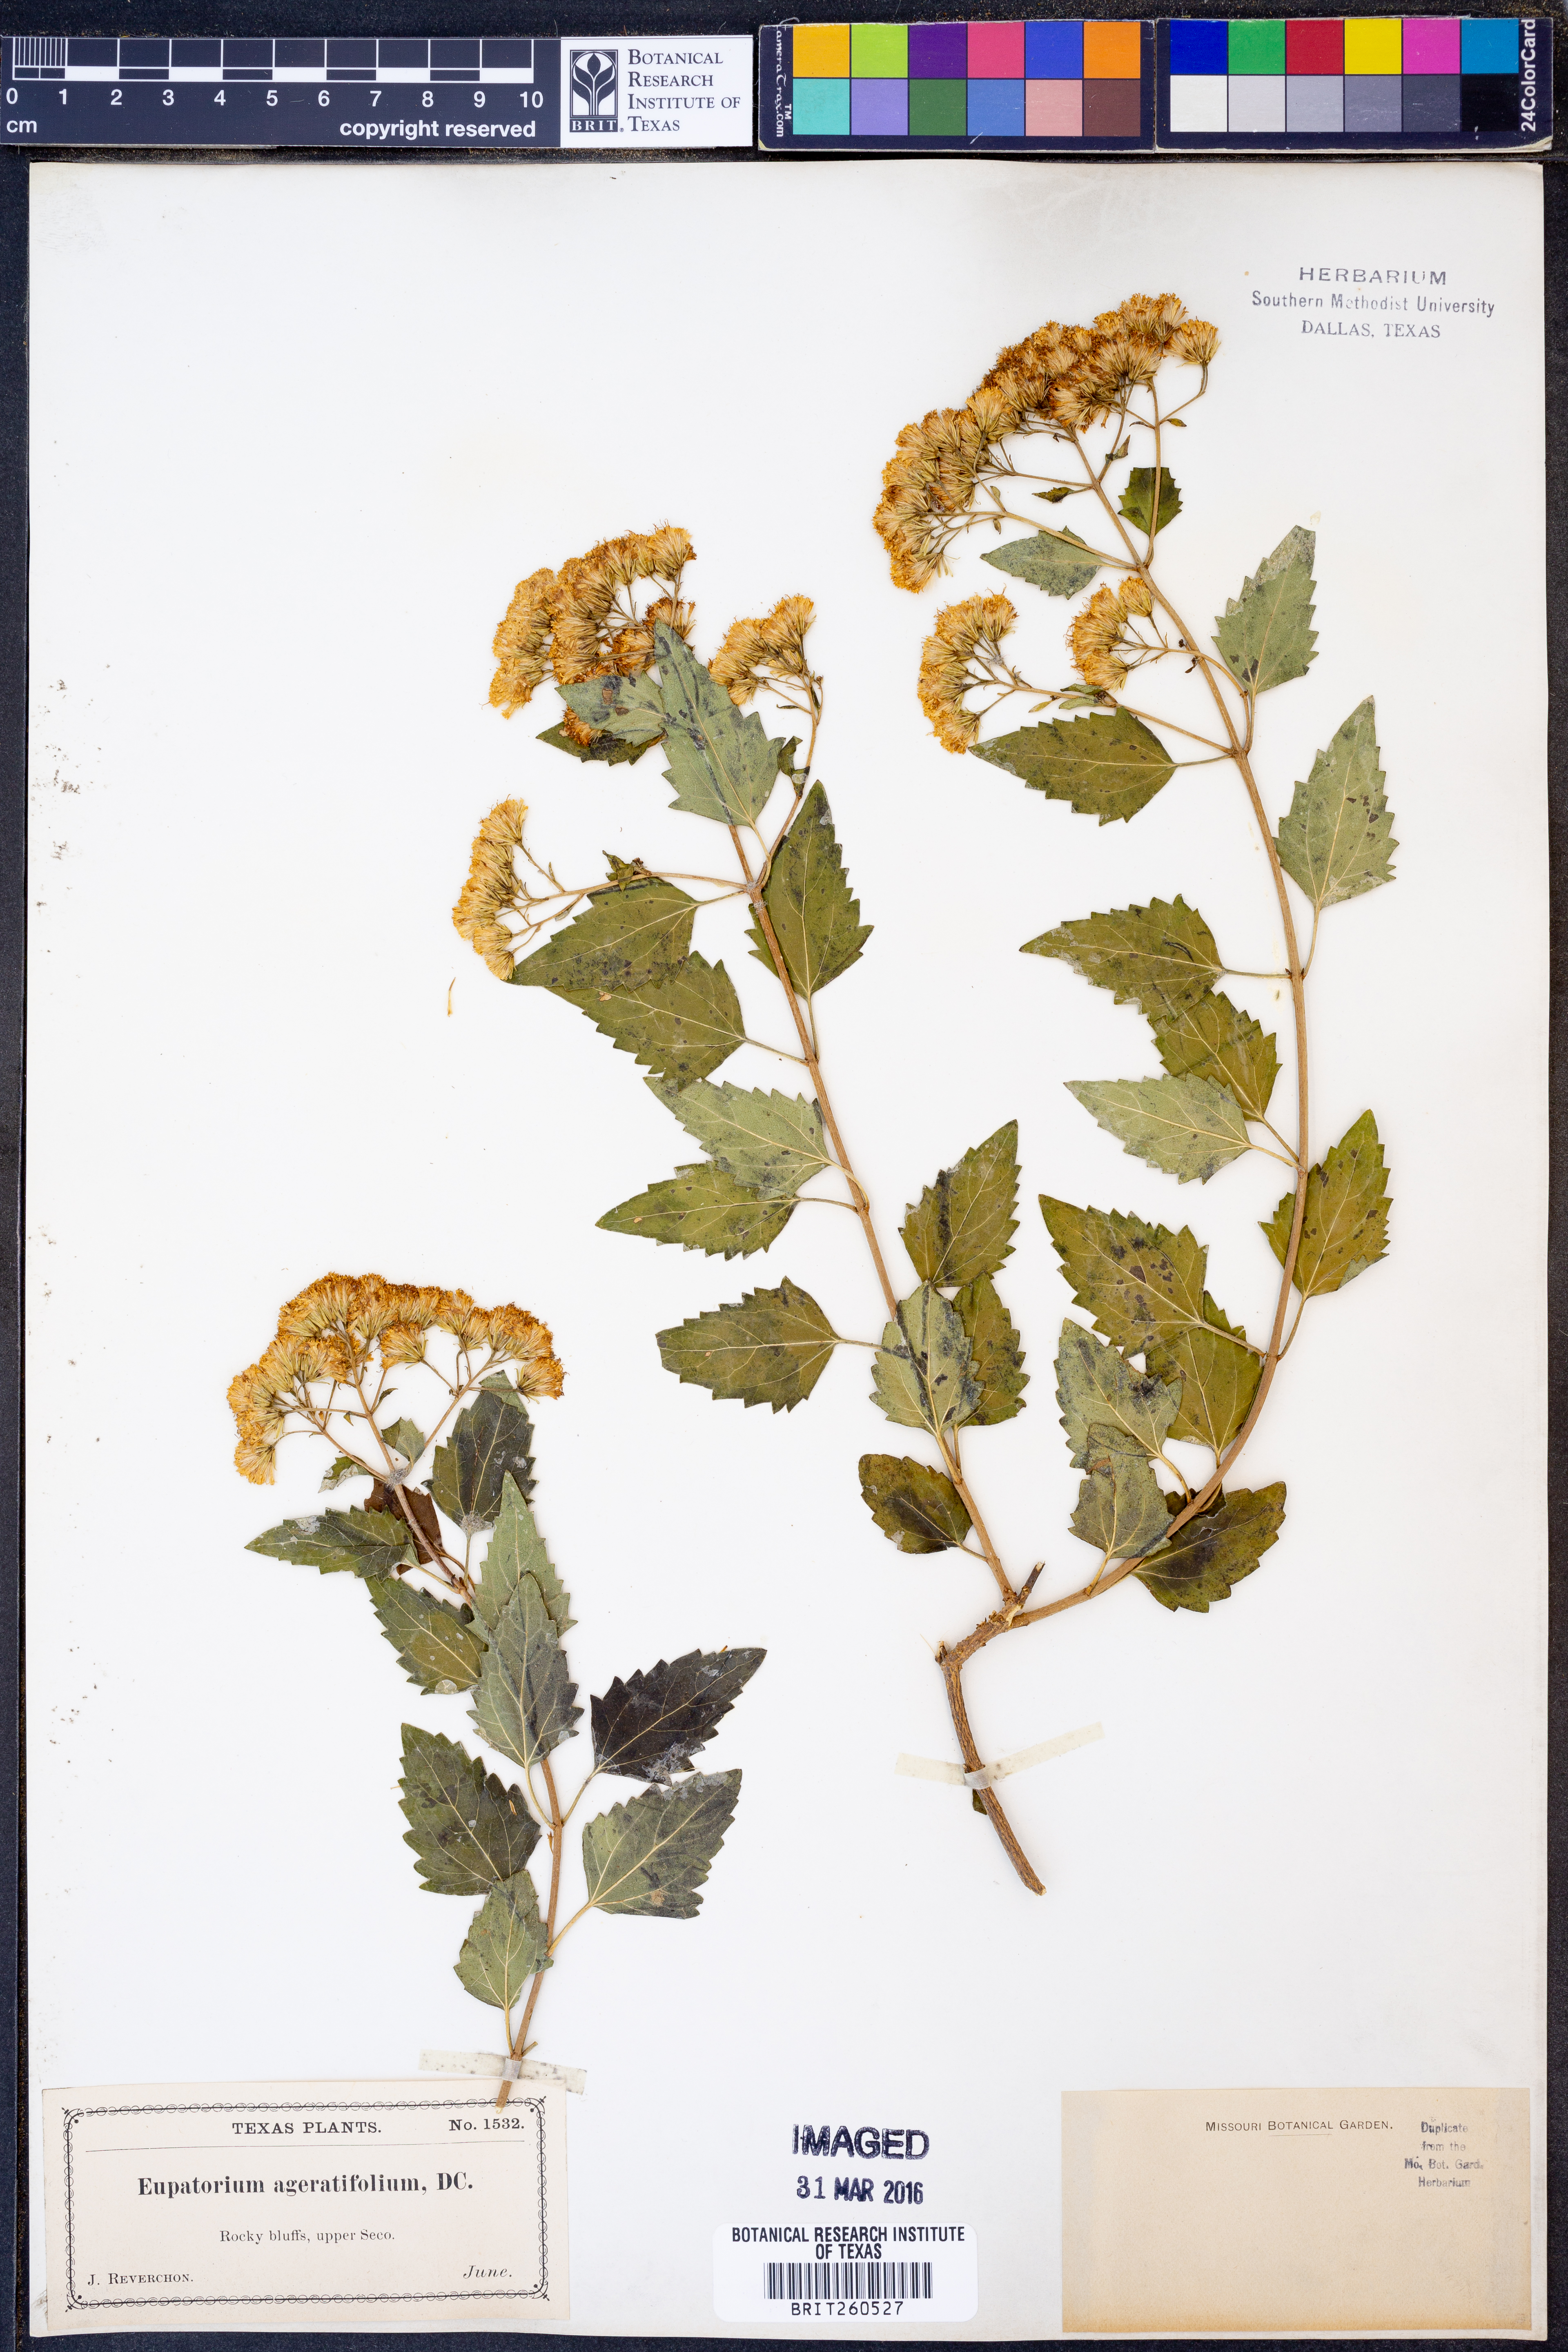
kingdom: Plantae
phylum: Tracheophyta
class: Magnoliopsida
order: Asterales
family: Asteraceae
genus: Ageratina
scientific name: Ageratina havanensis
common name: Havana snakeroot
